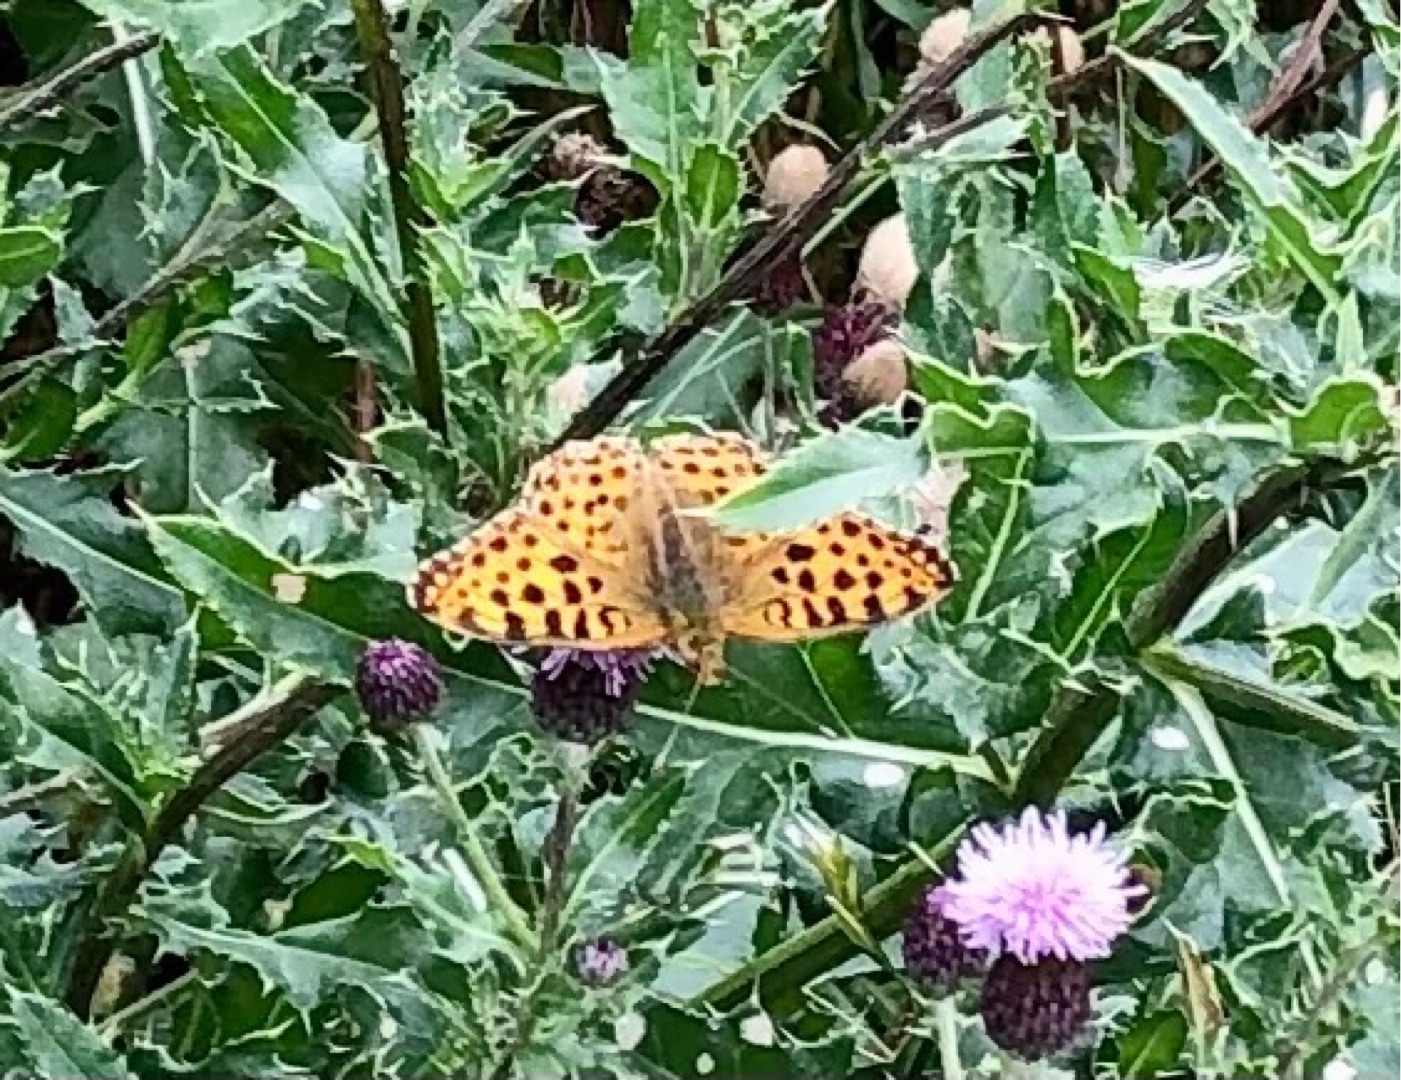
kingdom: Animalia
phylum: Arthropoda
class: Insecta
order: Lepidoptera
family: Nymphalidae
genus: Issoria
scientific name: Issoria lathonia
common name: Storplettet perlemorsommerfugl
